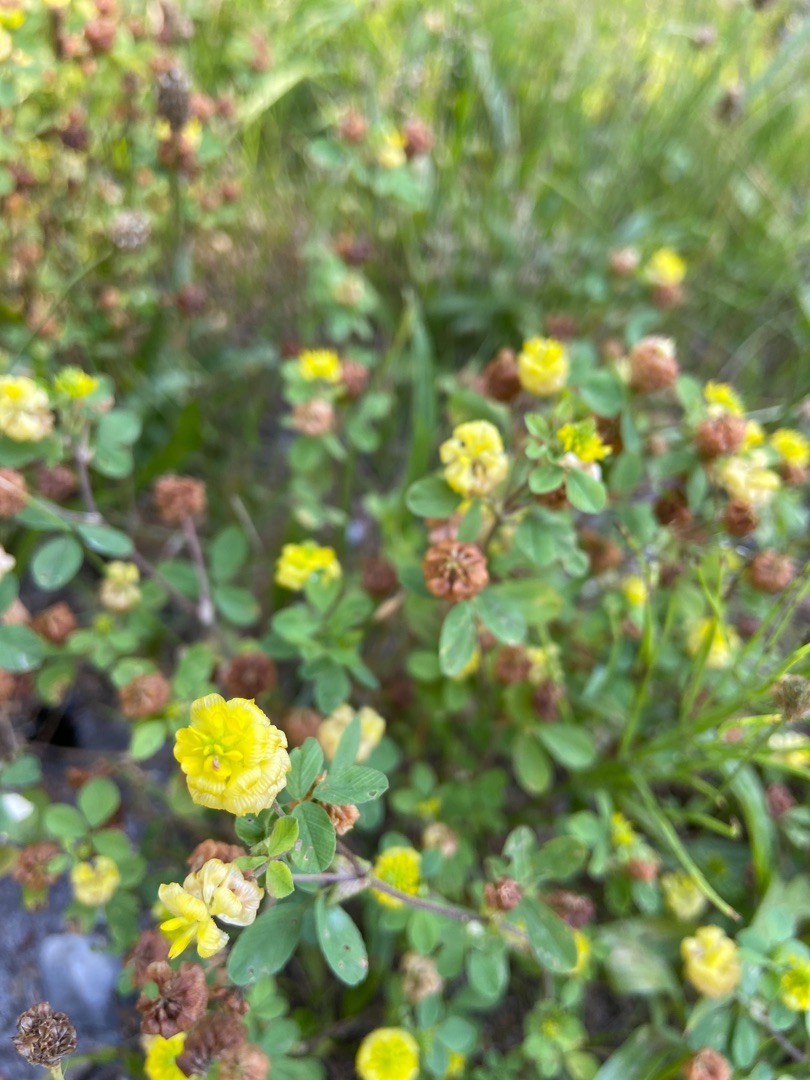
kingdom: Plantae
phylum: Tracheophyta
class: Magnoliopsida
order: Fabales
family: Fabaceae
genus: Trifolium
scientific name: Trifolium campestre
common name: Gul kløver
